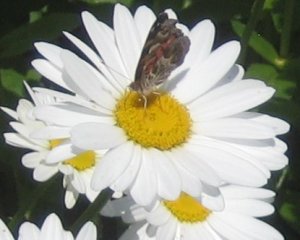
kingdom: Animalia
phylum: Arthropoda
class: Insecta
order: Lepidoptera
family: Nymphalidae
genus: Vanessa
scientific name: Vanessa virginiensis
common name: American Lady
